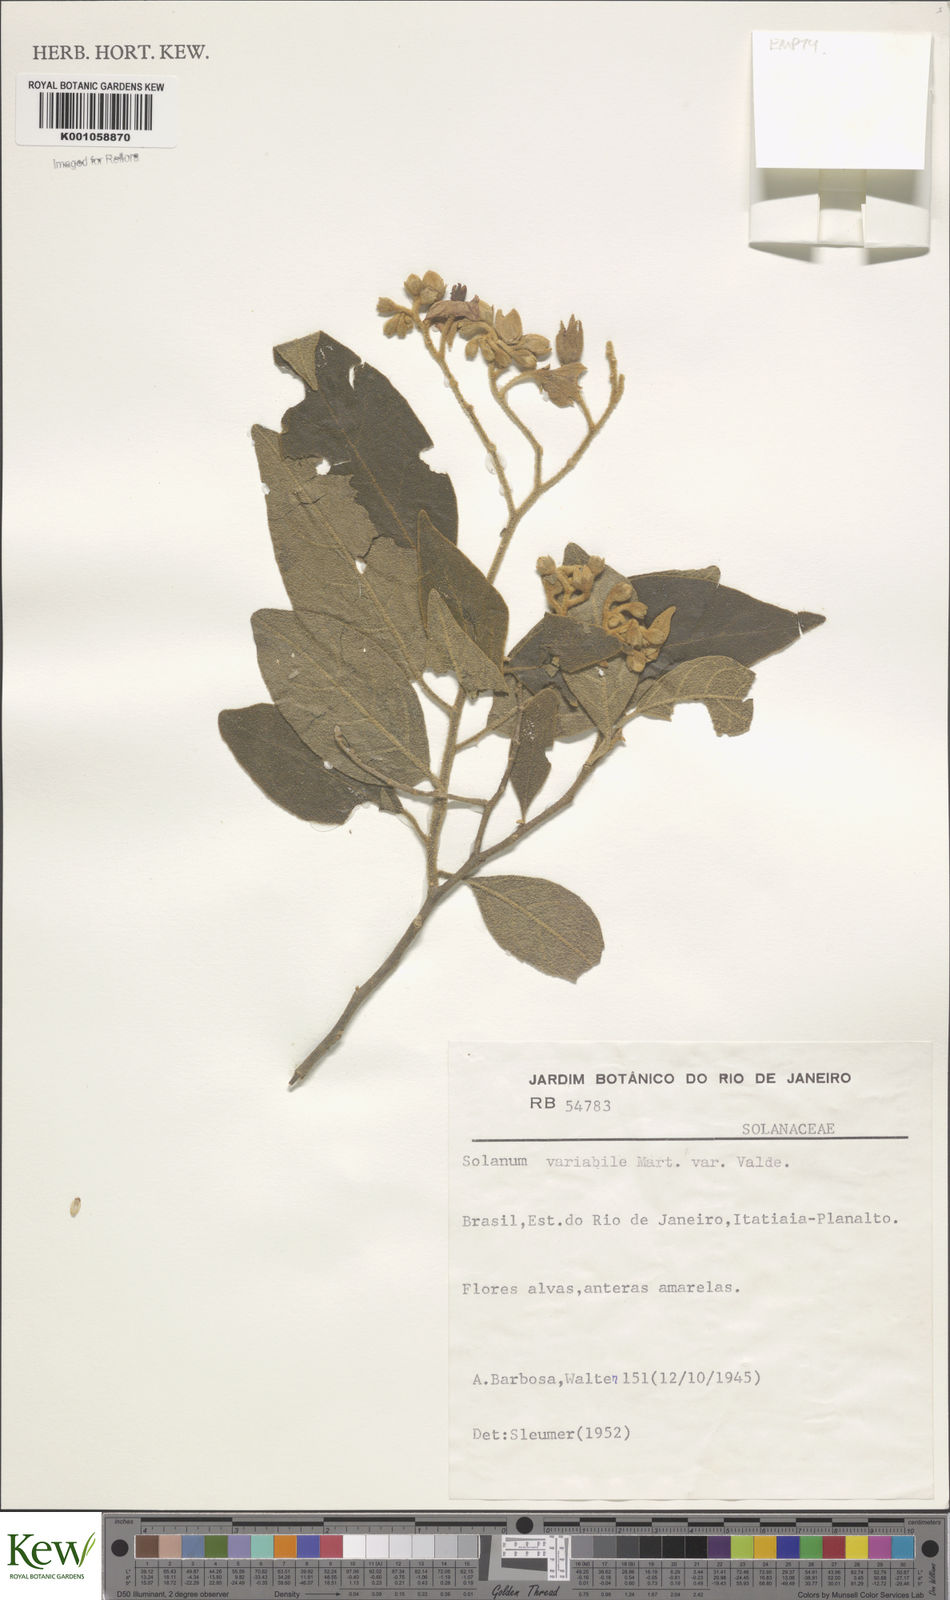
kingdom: Plantae
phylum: Tracheophyta
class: Magnoliopsida
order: Solanales
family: Solanaceae
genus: Solanum
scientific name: Solanum variabile
